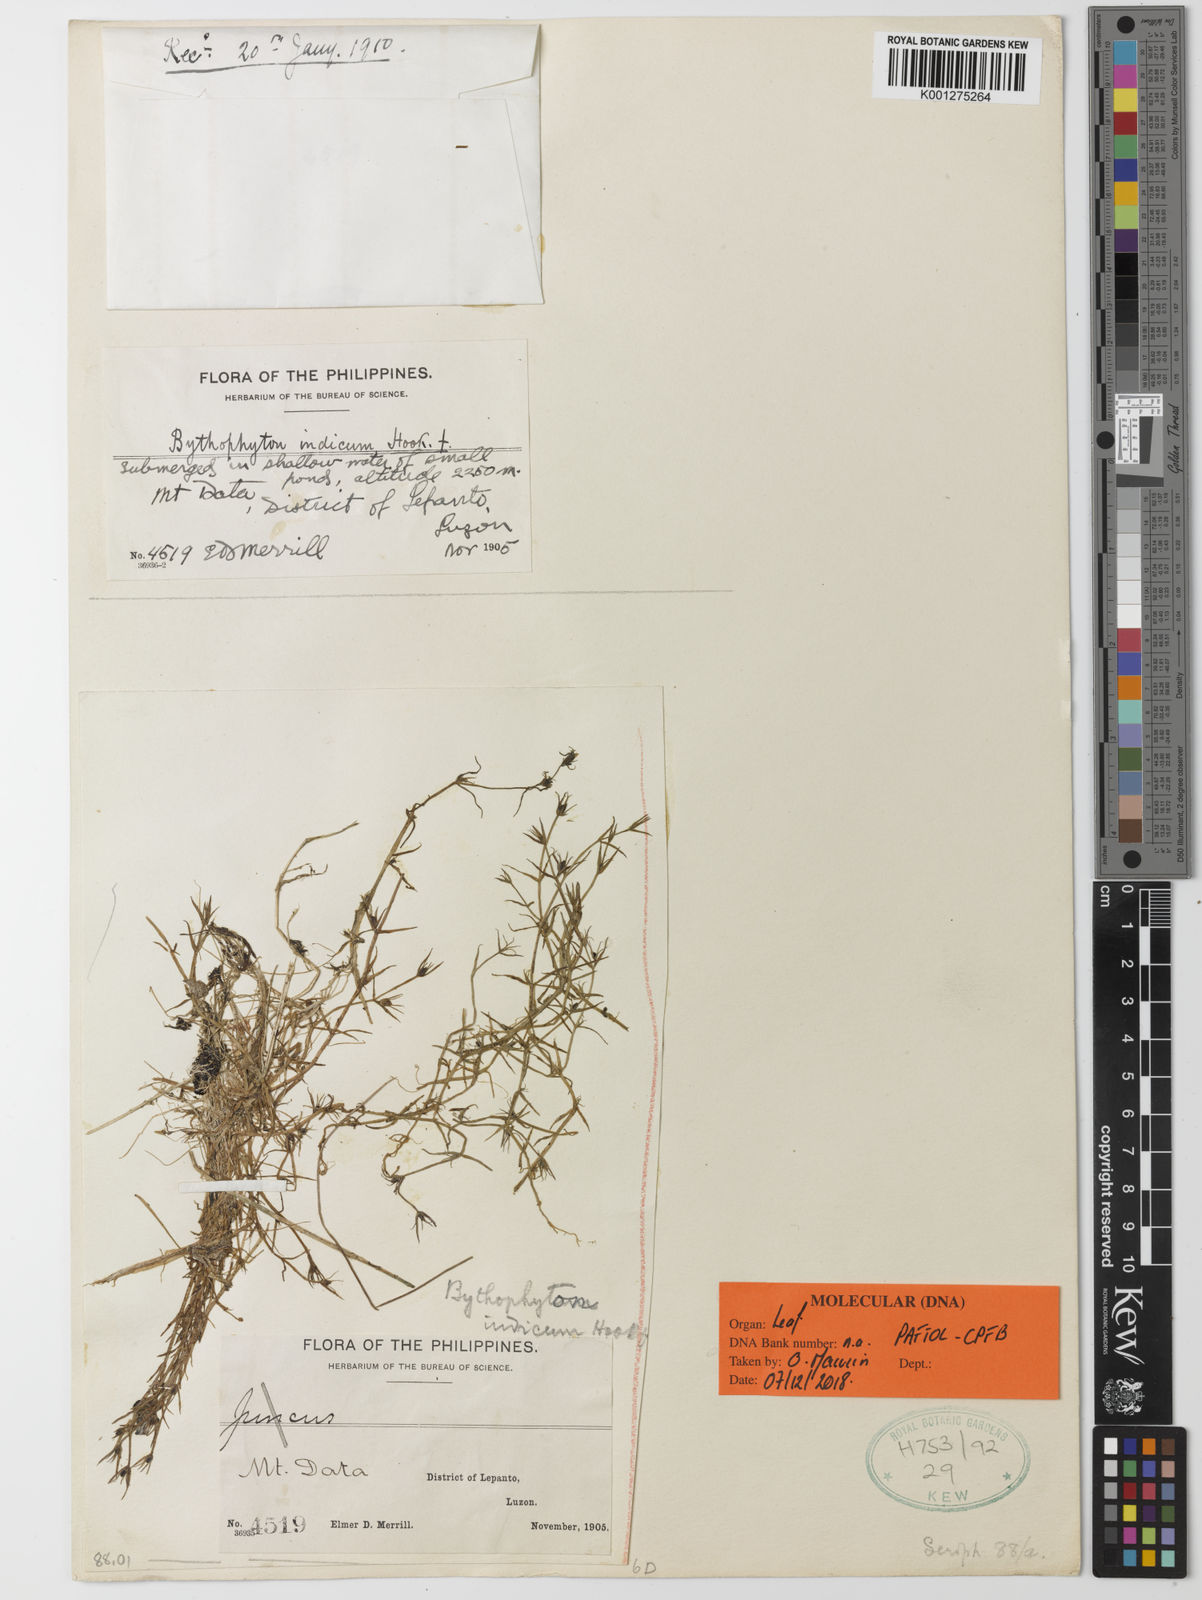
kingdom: Plantae
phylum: Tracheophyta
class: Magnoliopsida
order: Lamiales
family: Phrymaceae
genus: Bythophyton
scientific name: Bythophyton indicum
